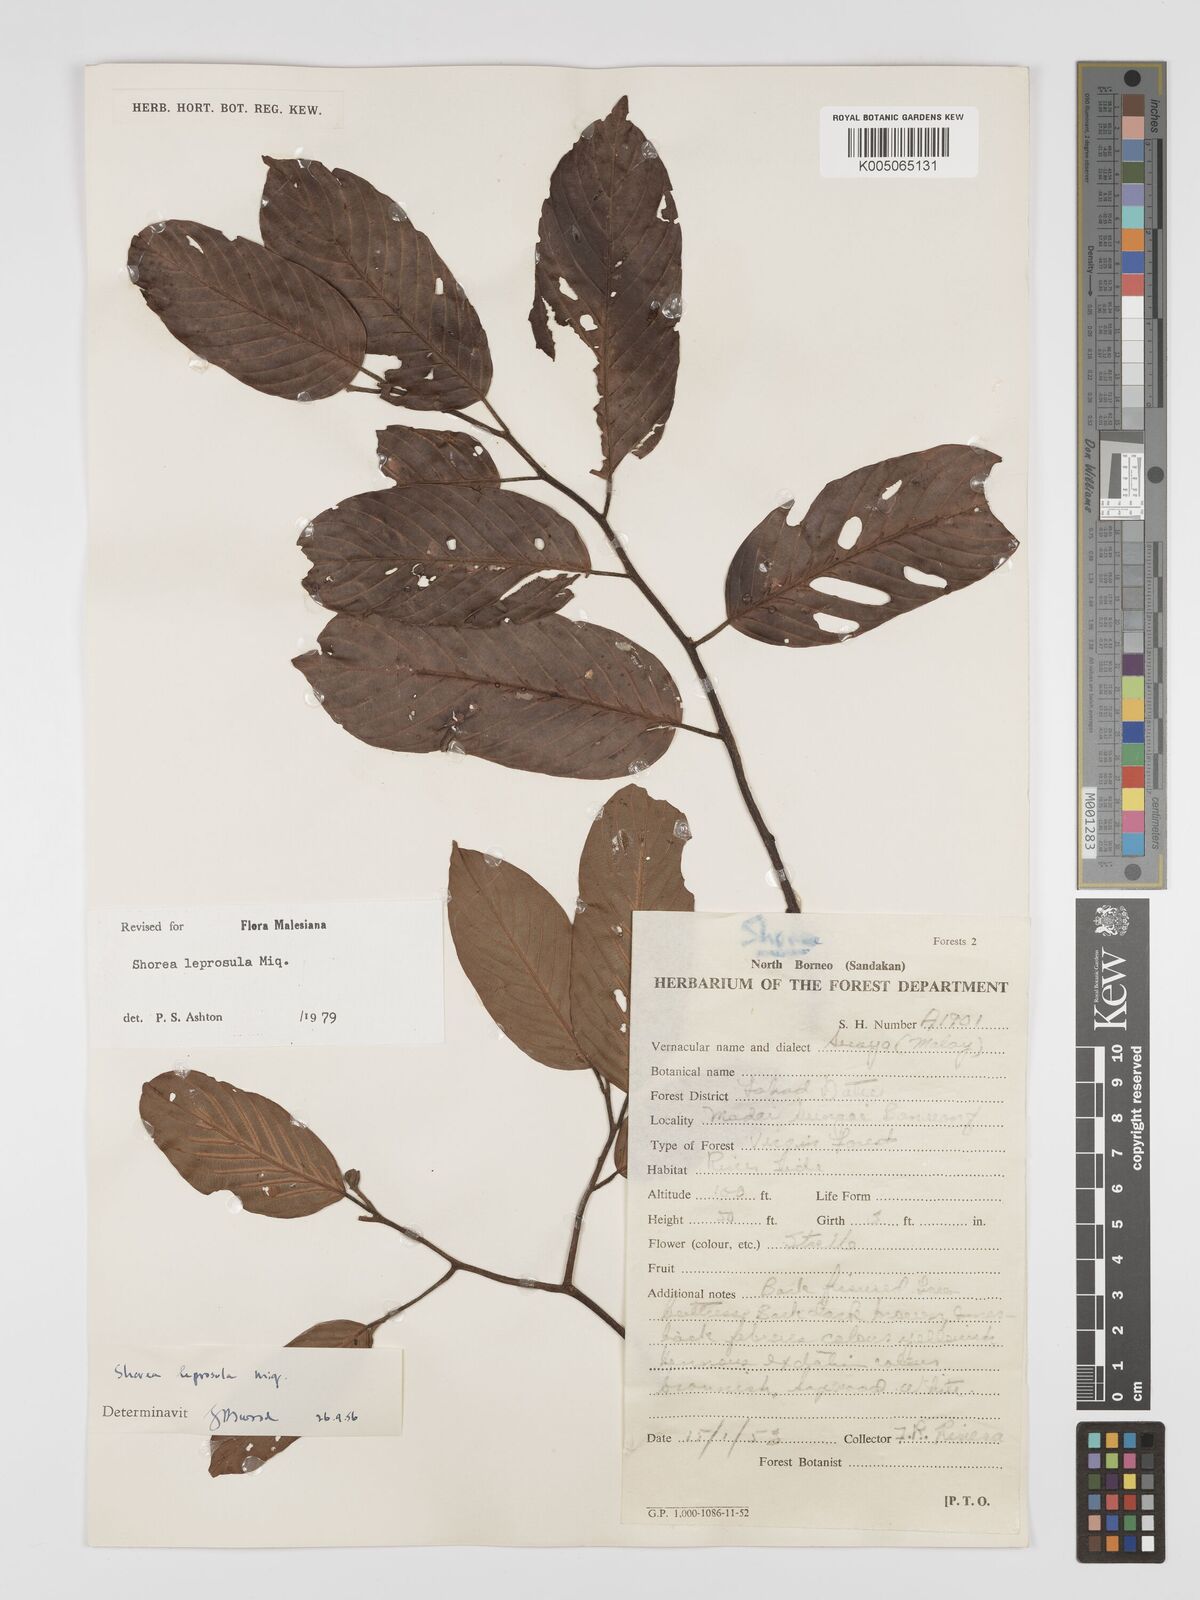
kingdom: Plantae
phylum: Tracheophyta
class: Magnoliopsida
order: Malvales
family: Dipterocarpaceae
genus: Shorea
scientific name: Shorea leprosula
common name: Light red meranti
